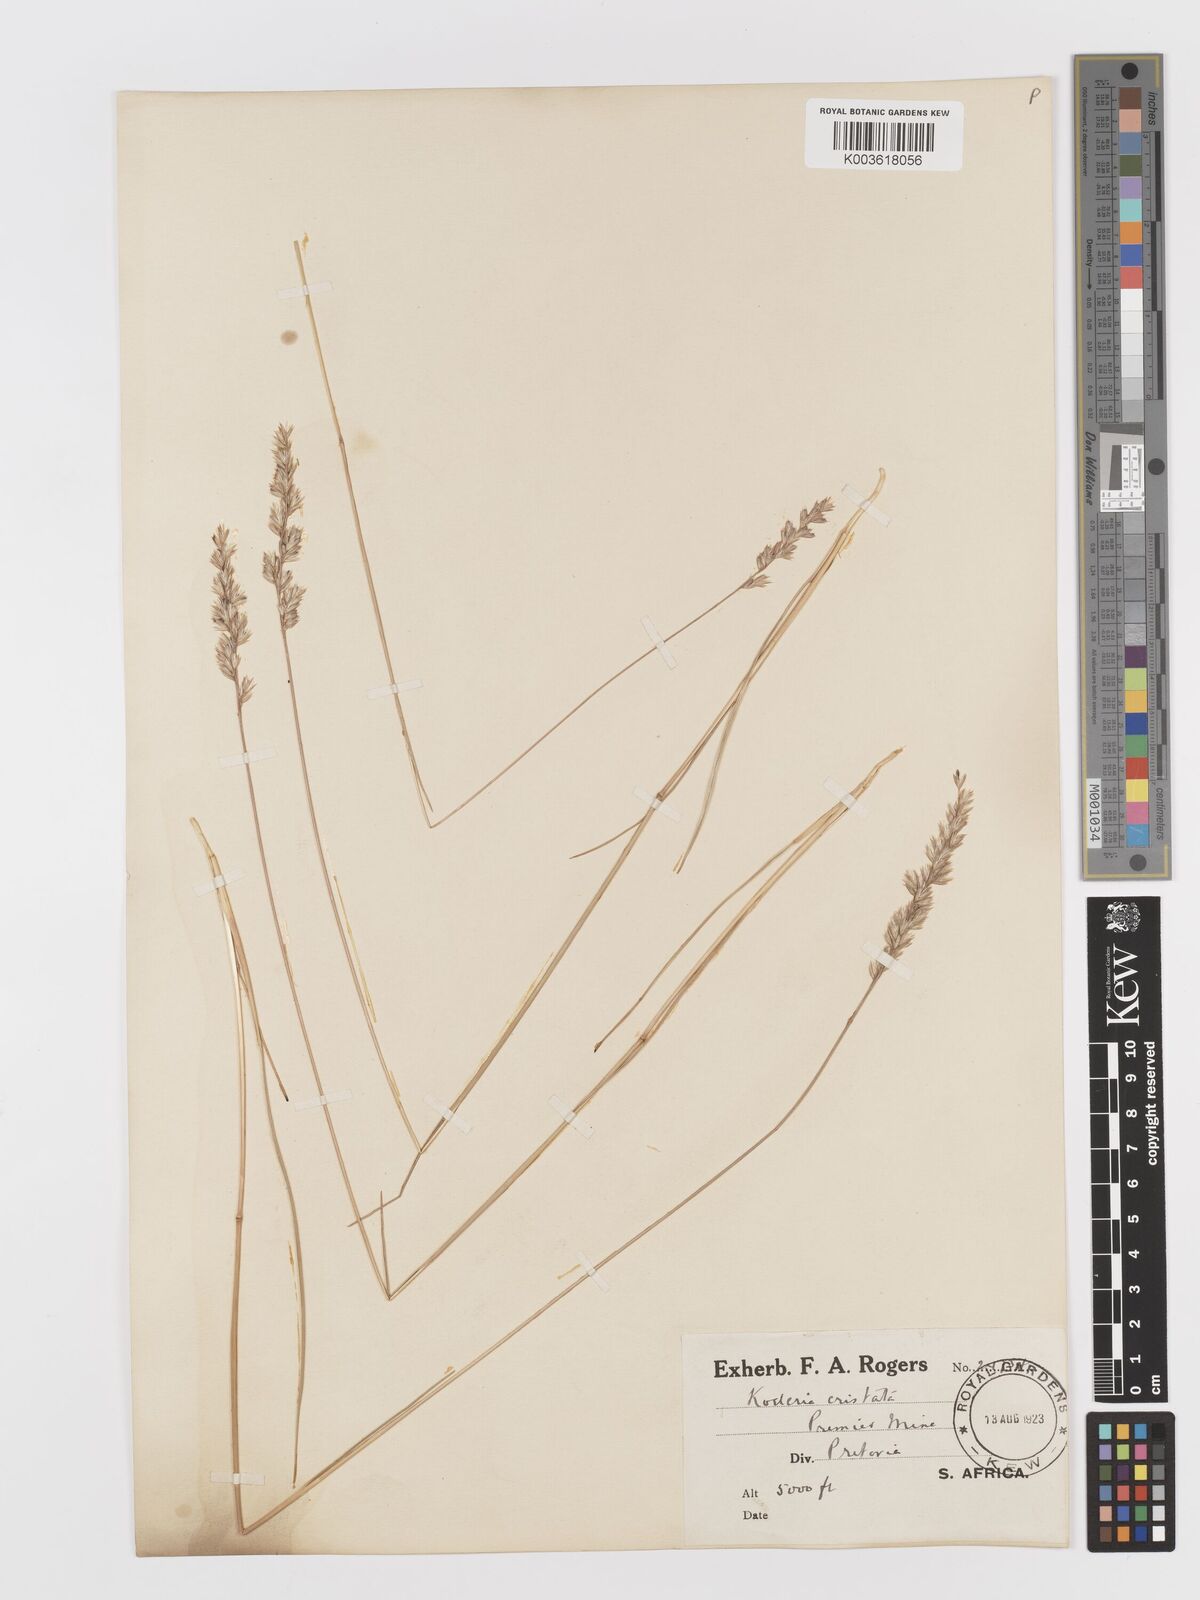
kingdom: Plantae
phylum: Tracheophyta
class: Liliopsida
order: Poales
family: Poaceae
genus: Koeleria
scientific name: Koeleria capensis
